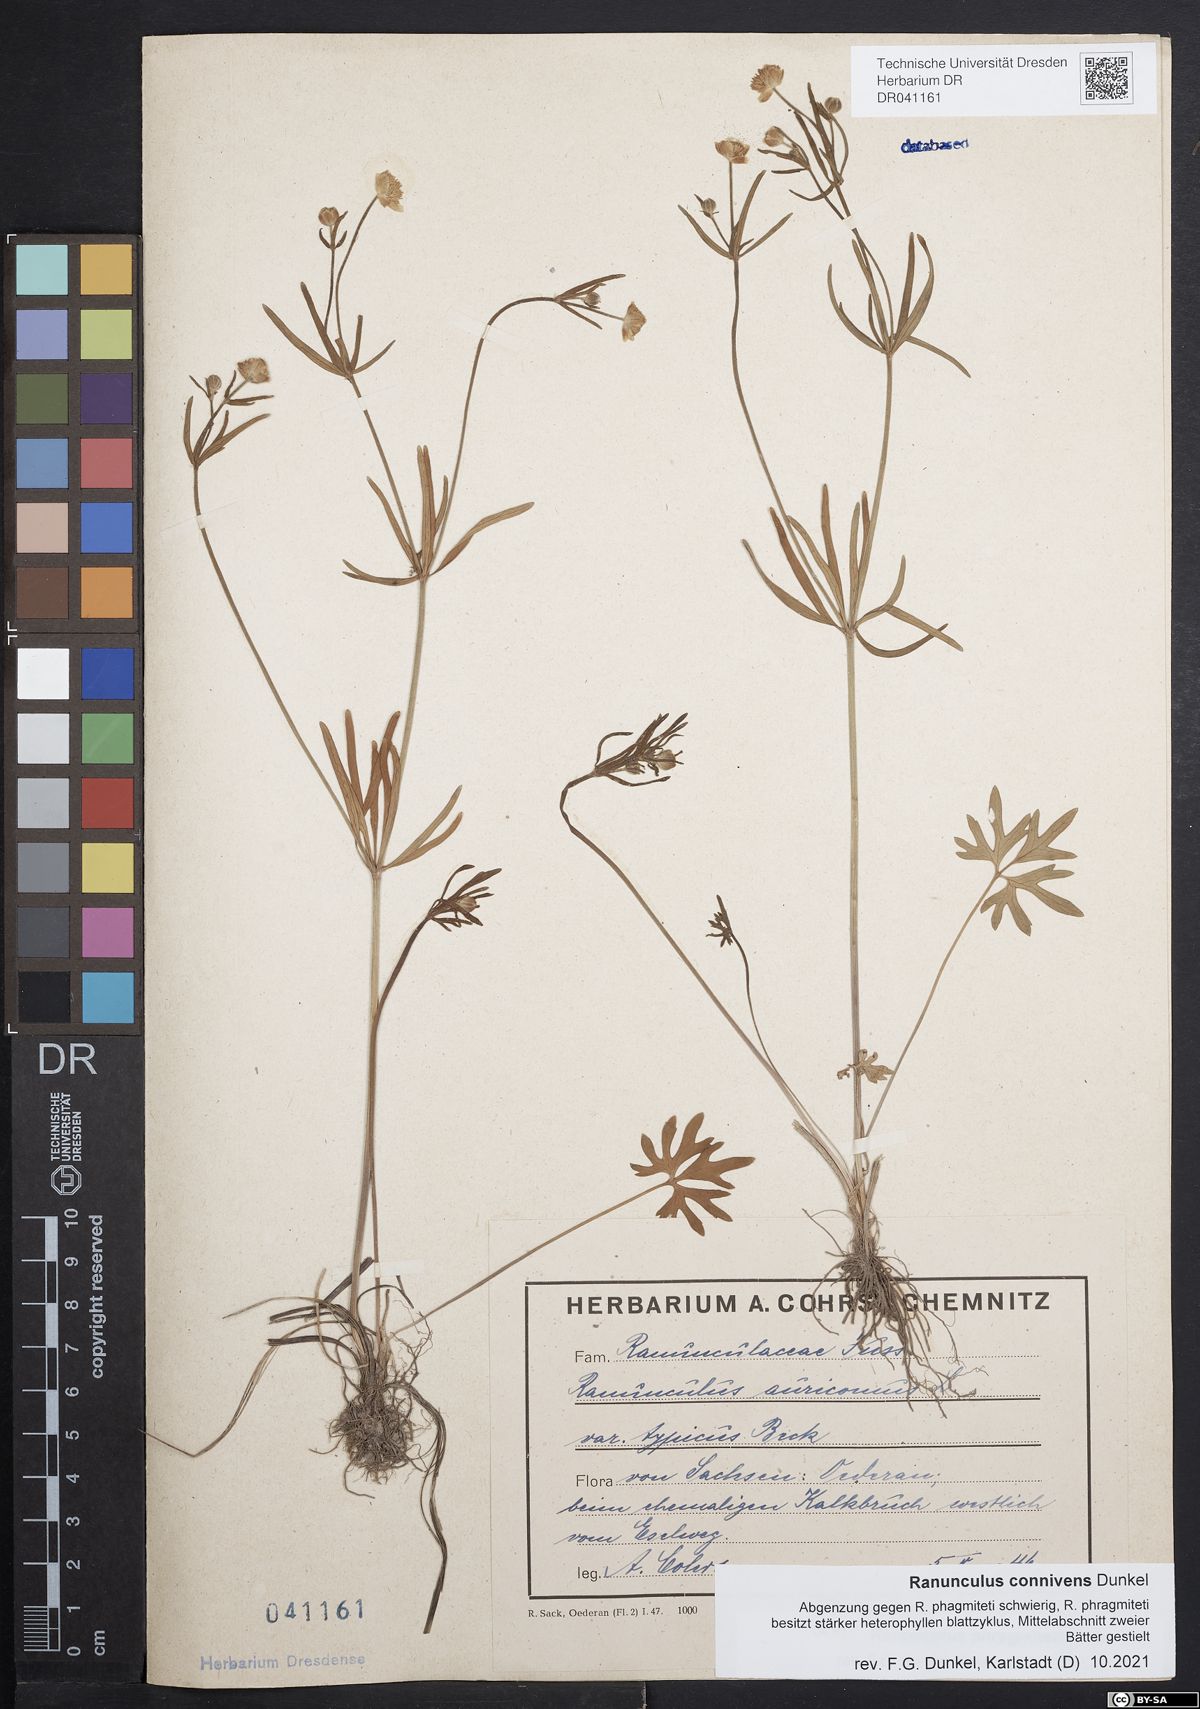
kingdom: Plantae
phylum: Tracheophyta
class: Magnoliopsida
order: Ranunculales
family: Ranunculaceae
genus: Ranunculus
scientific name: Ranunculus connivens
